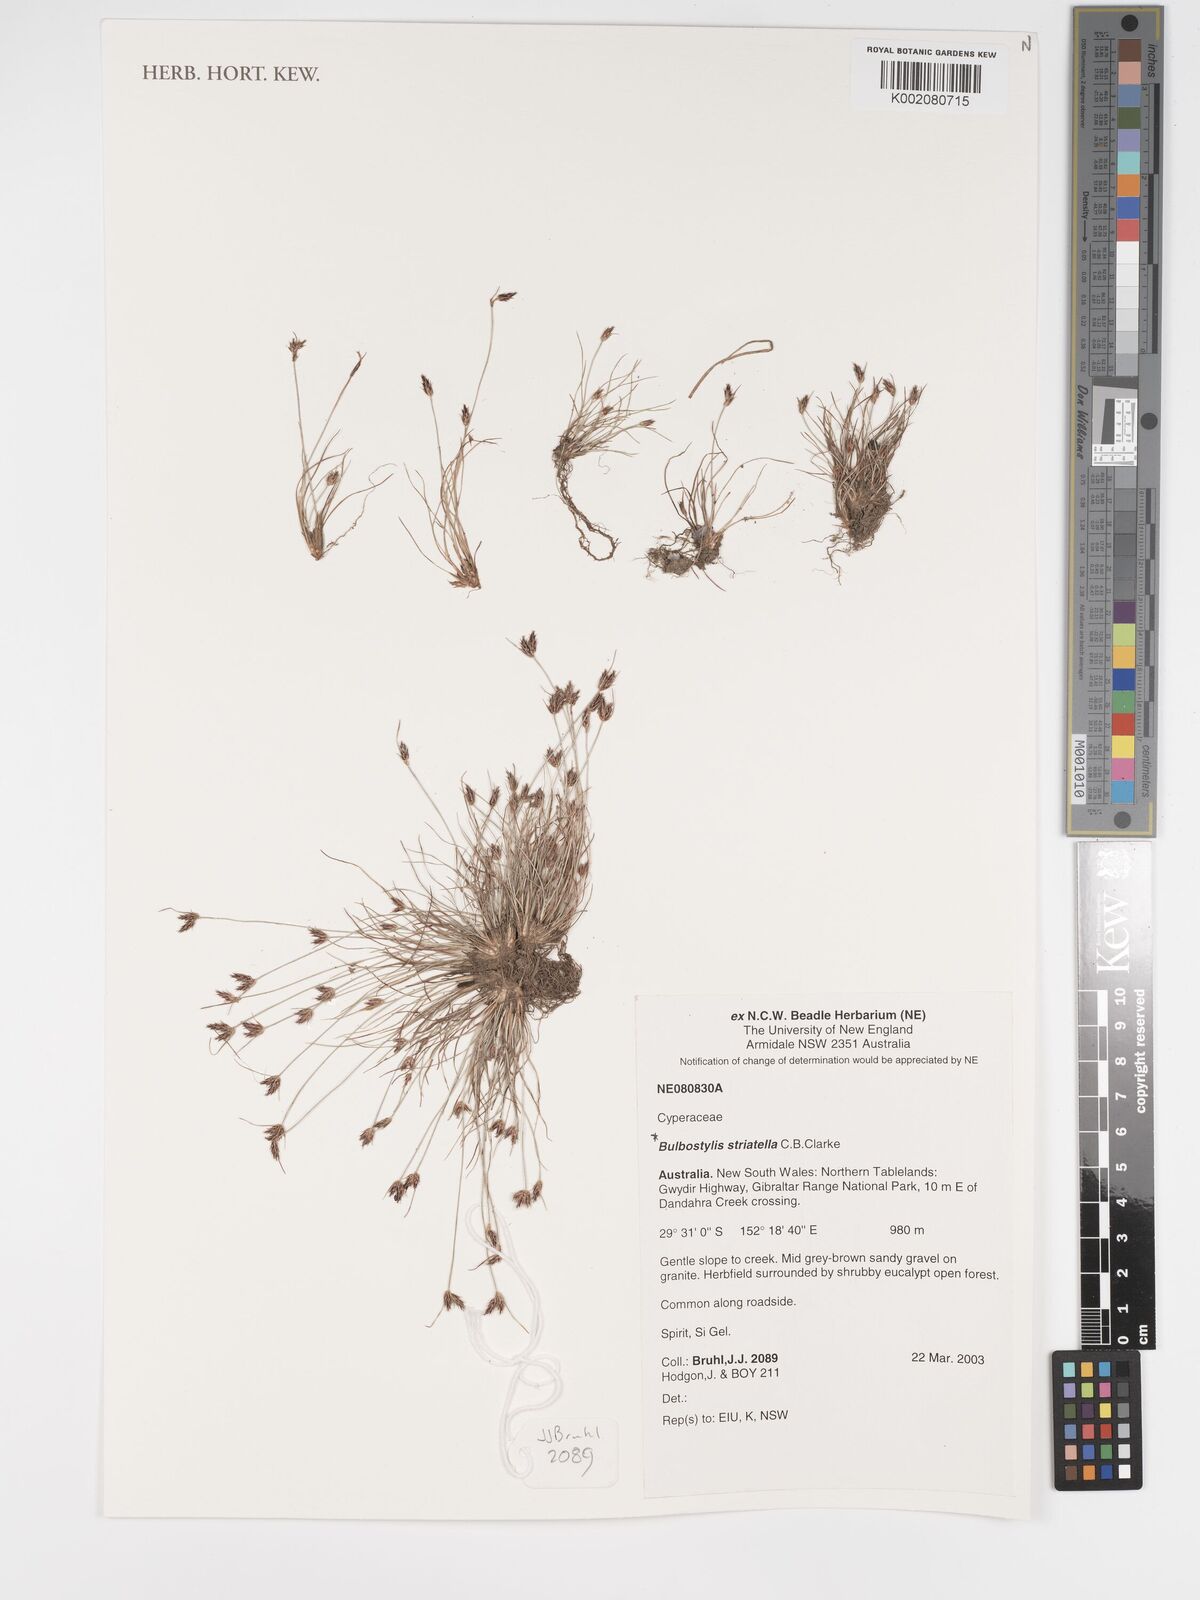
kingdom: Plantae
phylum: Tracheophyta
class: Liliopsida
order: Poales
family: Cyperaceae
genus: Bulbostylis
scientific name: Bulbostylis humilis
